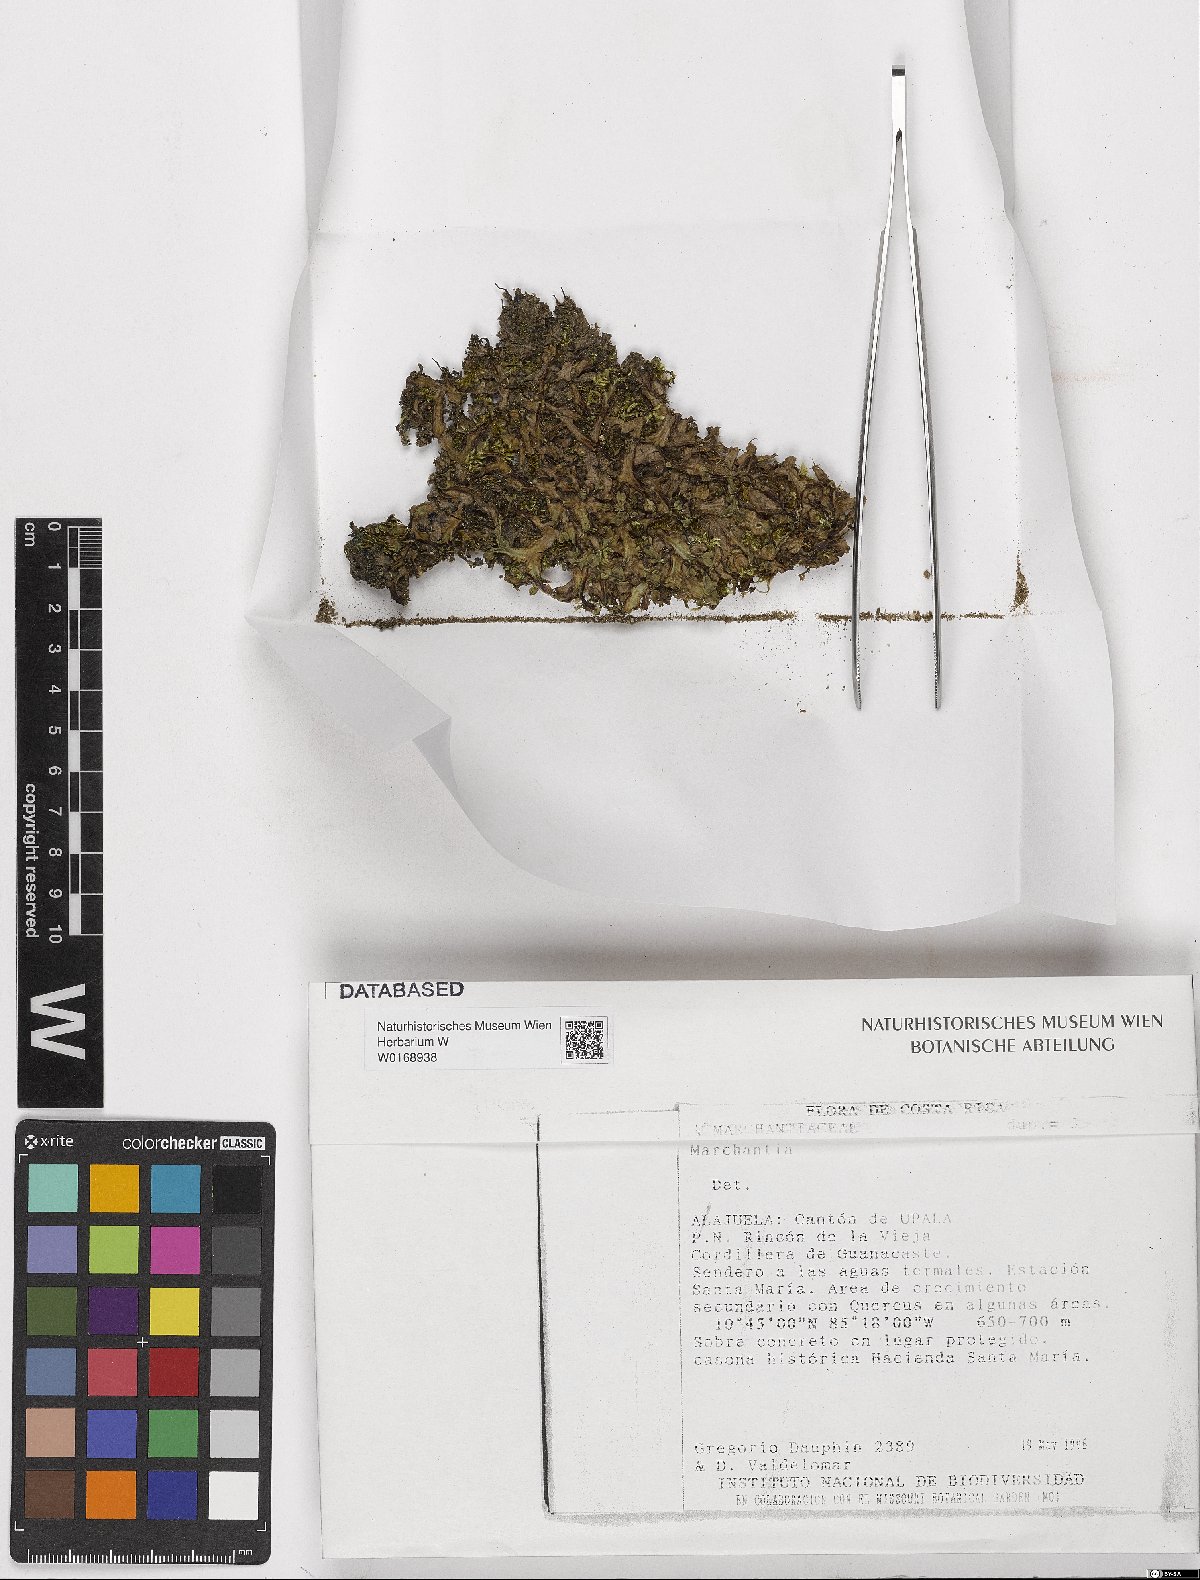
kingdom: Plantae
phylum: Marchantiophyta
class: Marchantiopsida
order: Marchantiales
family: Marchantiaceae
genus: Marchantia
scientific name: Marchantia
